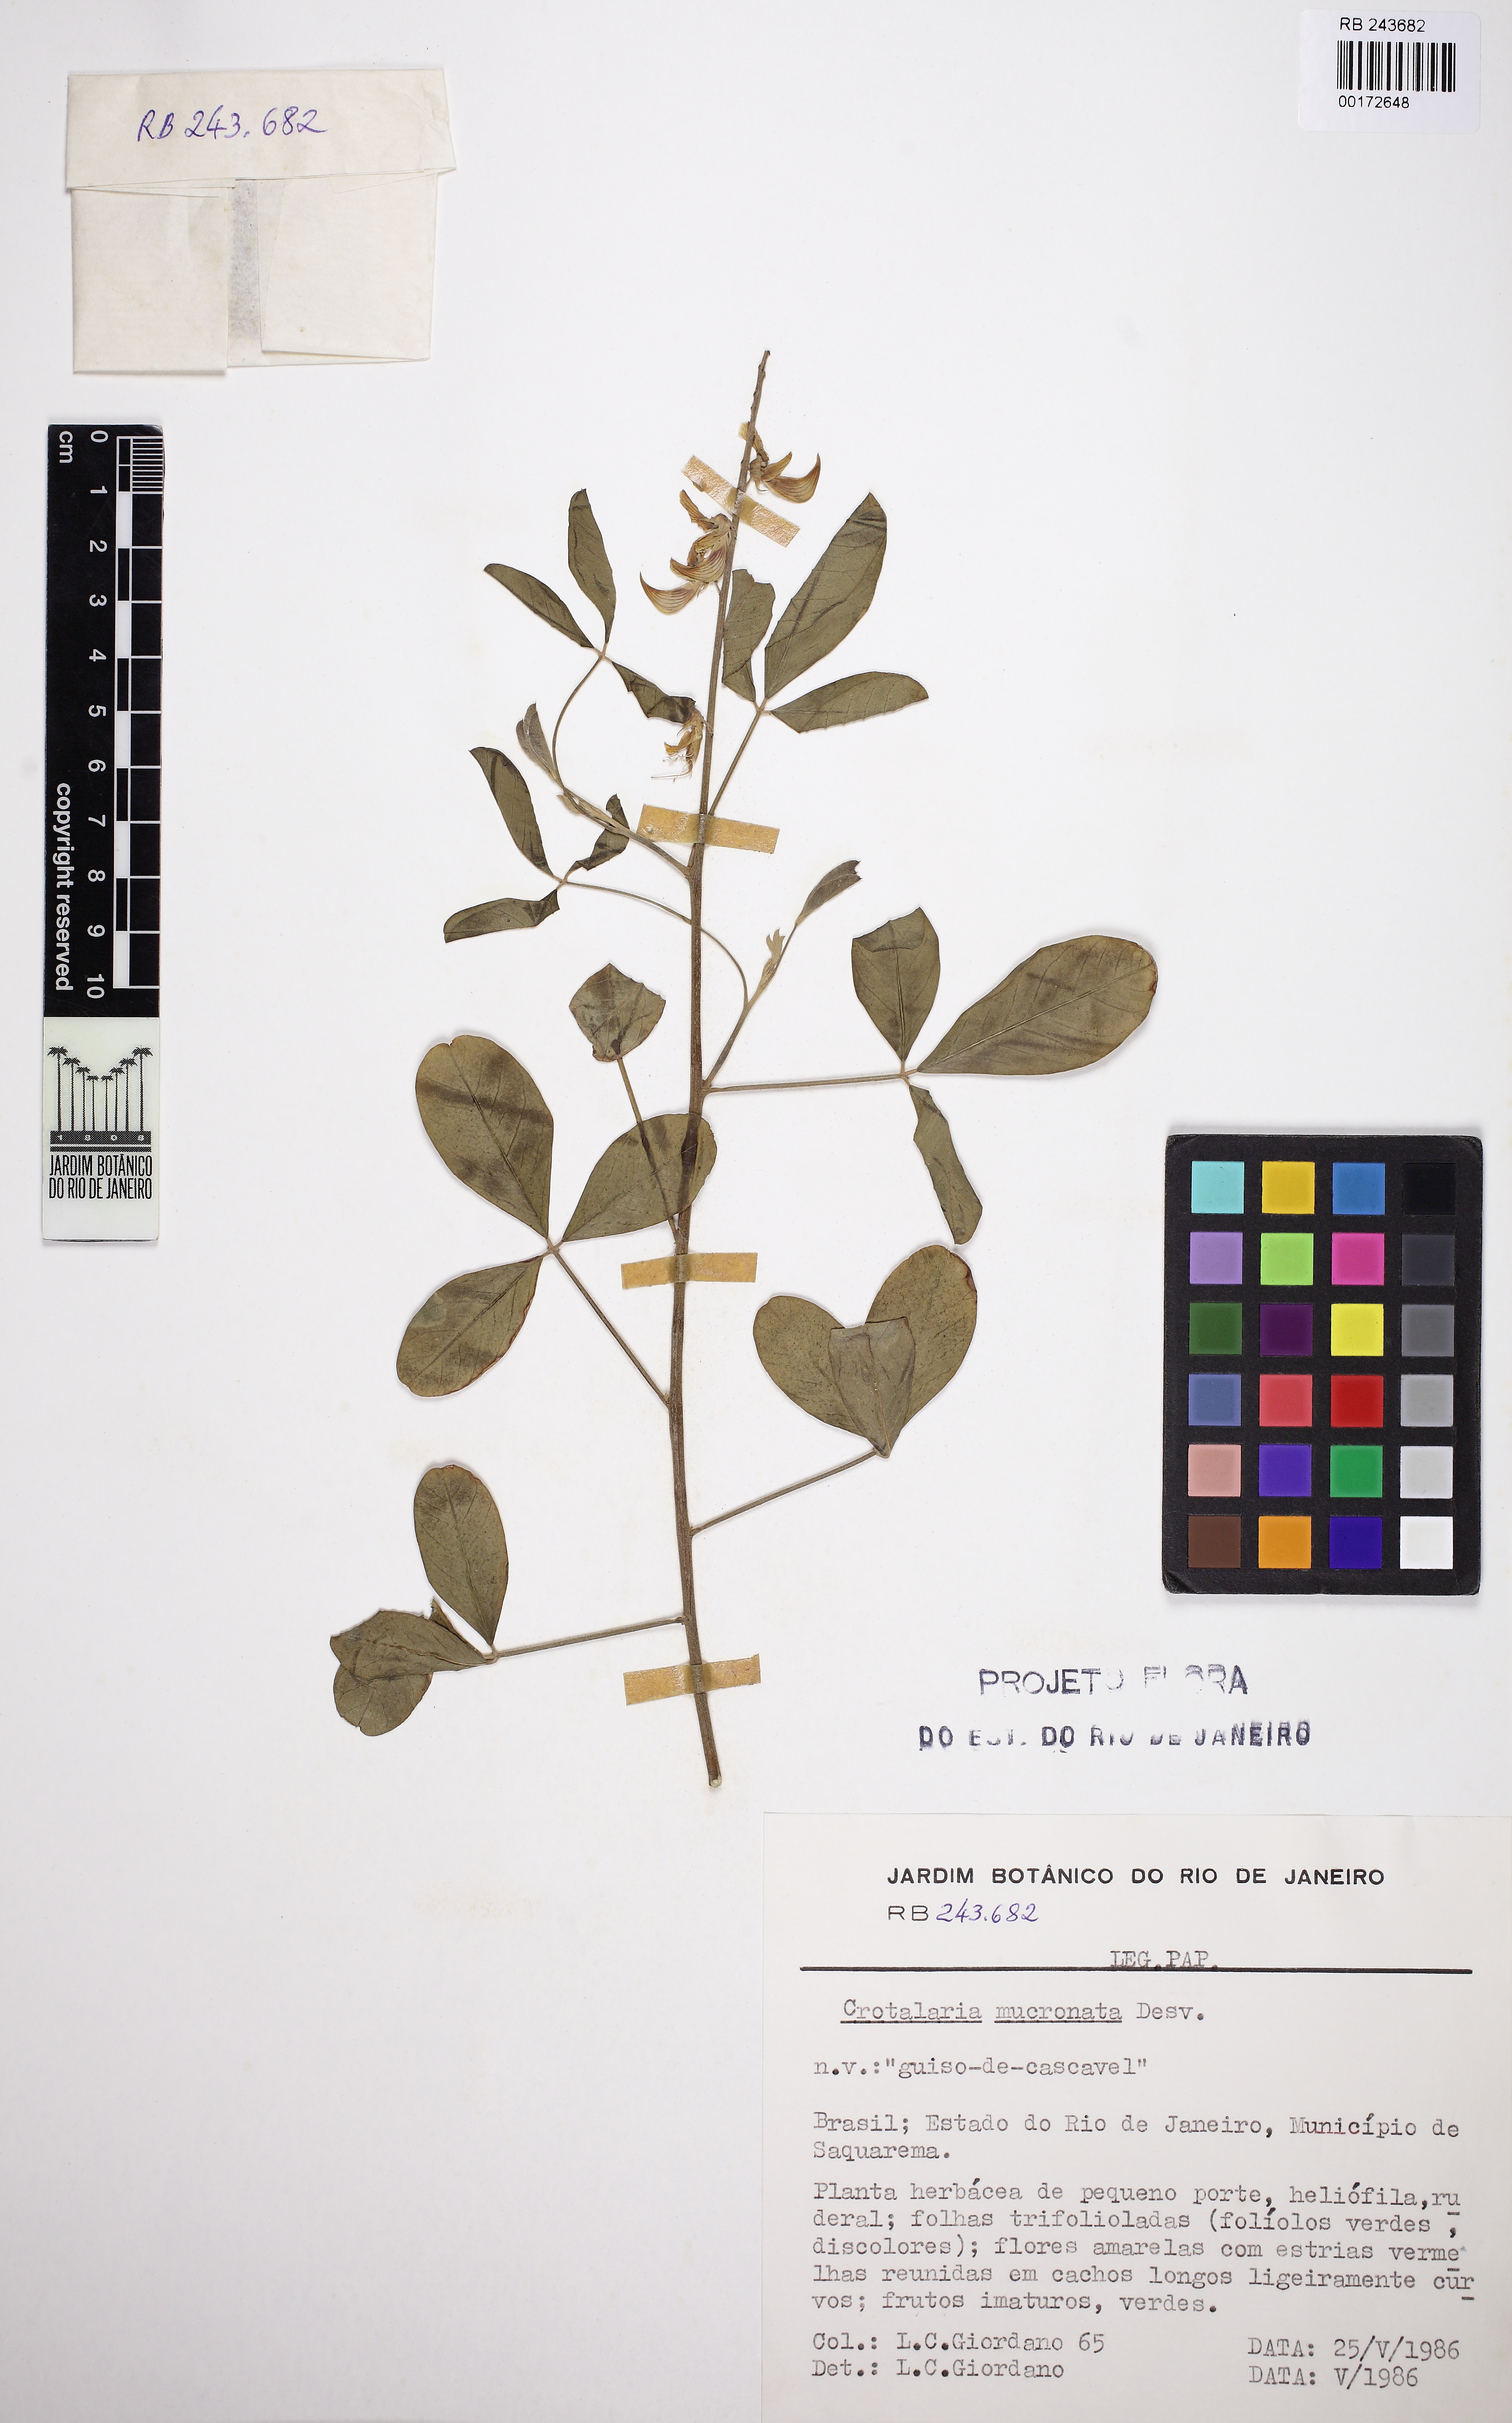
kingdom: Plantae
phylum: Tracheophyta
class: Magnoliopsida
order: Fabales
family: Fabaceae
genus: Crotalaria
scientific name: Crotalaria pallida
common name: Smooth rattlebox
